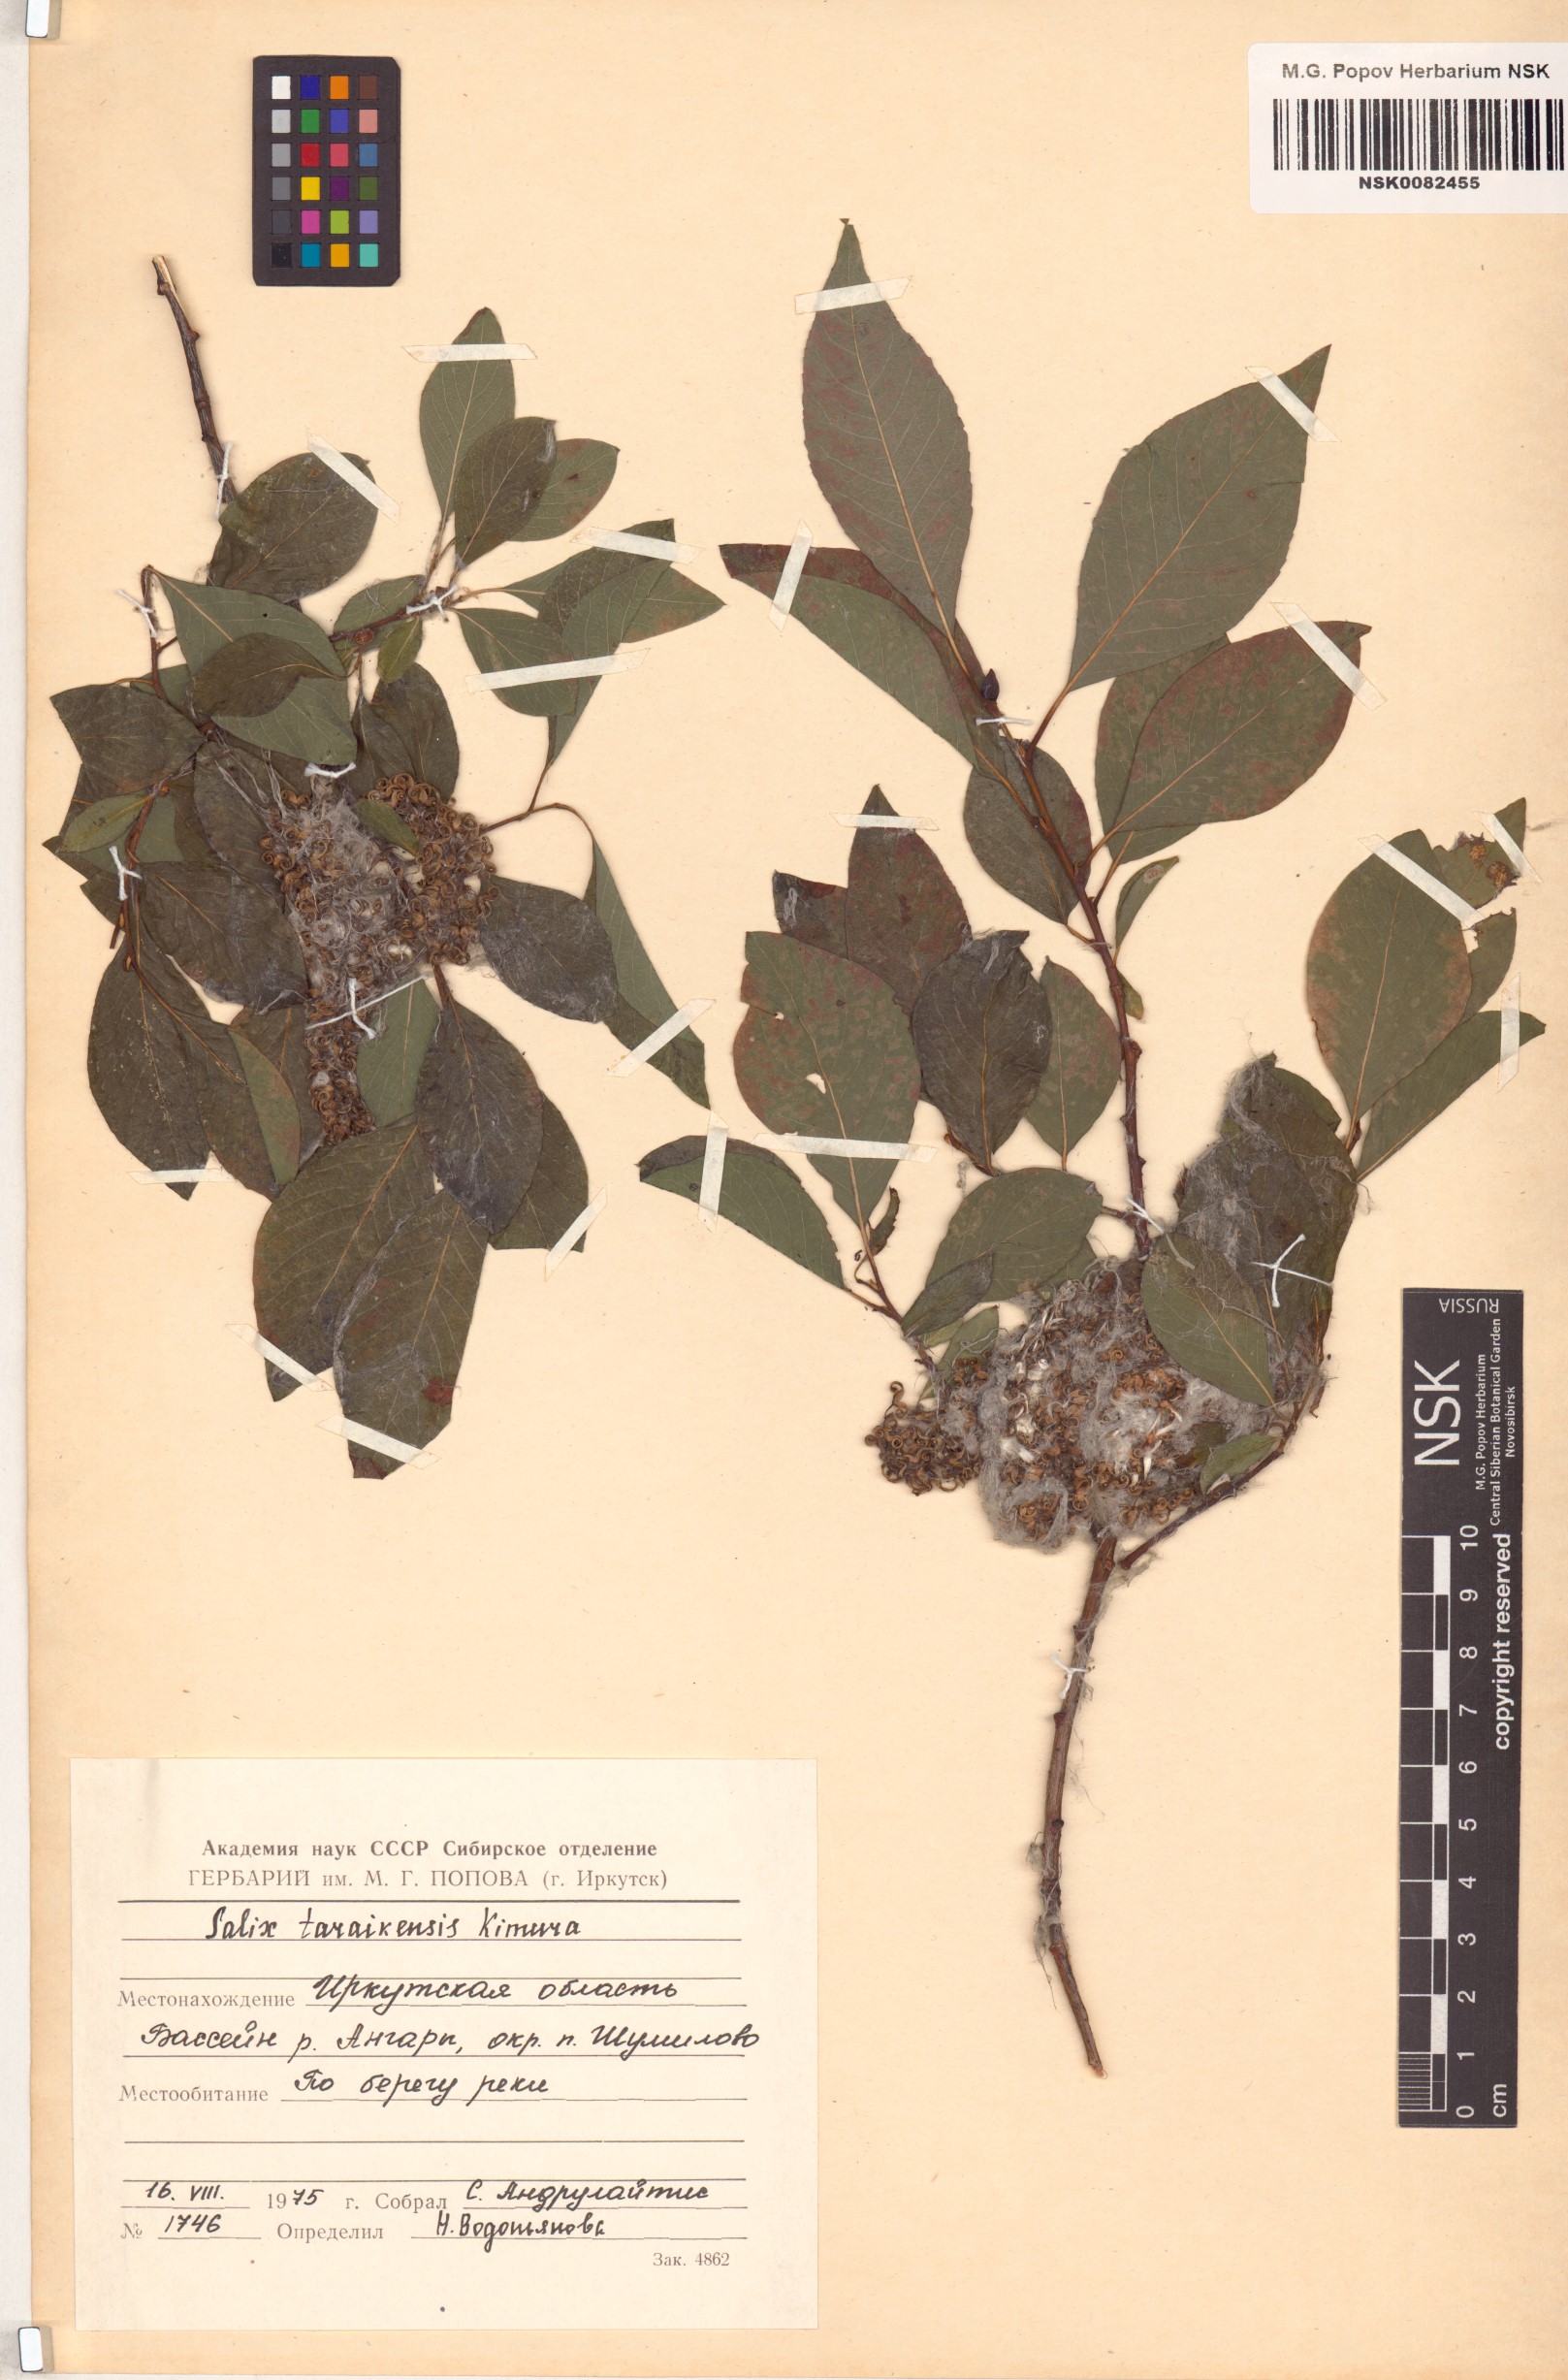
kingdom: Plantae
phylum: Tracheophyta
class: Magnoliopsida
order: Malpighiales
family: Salicaceae
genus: Salix
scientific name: Salix taraikensis
